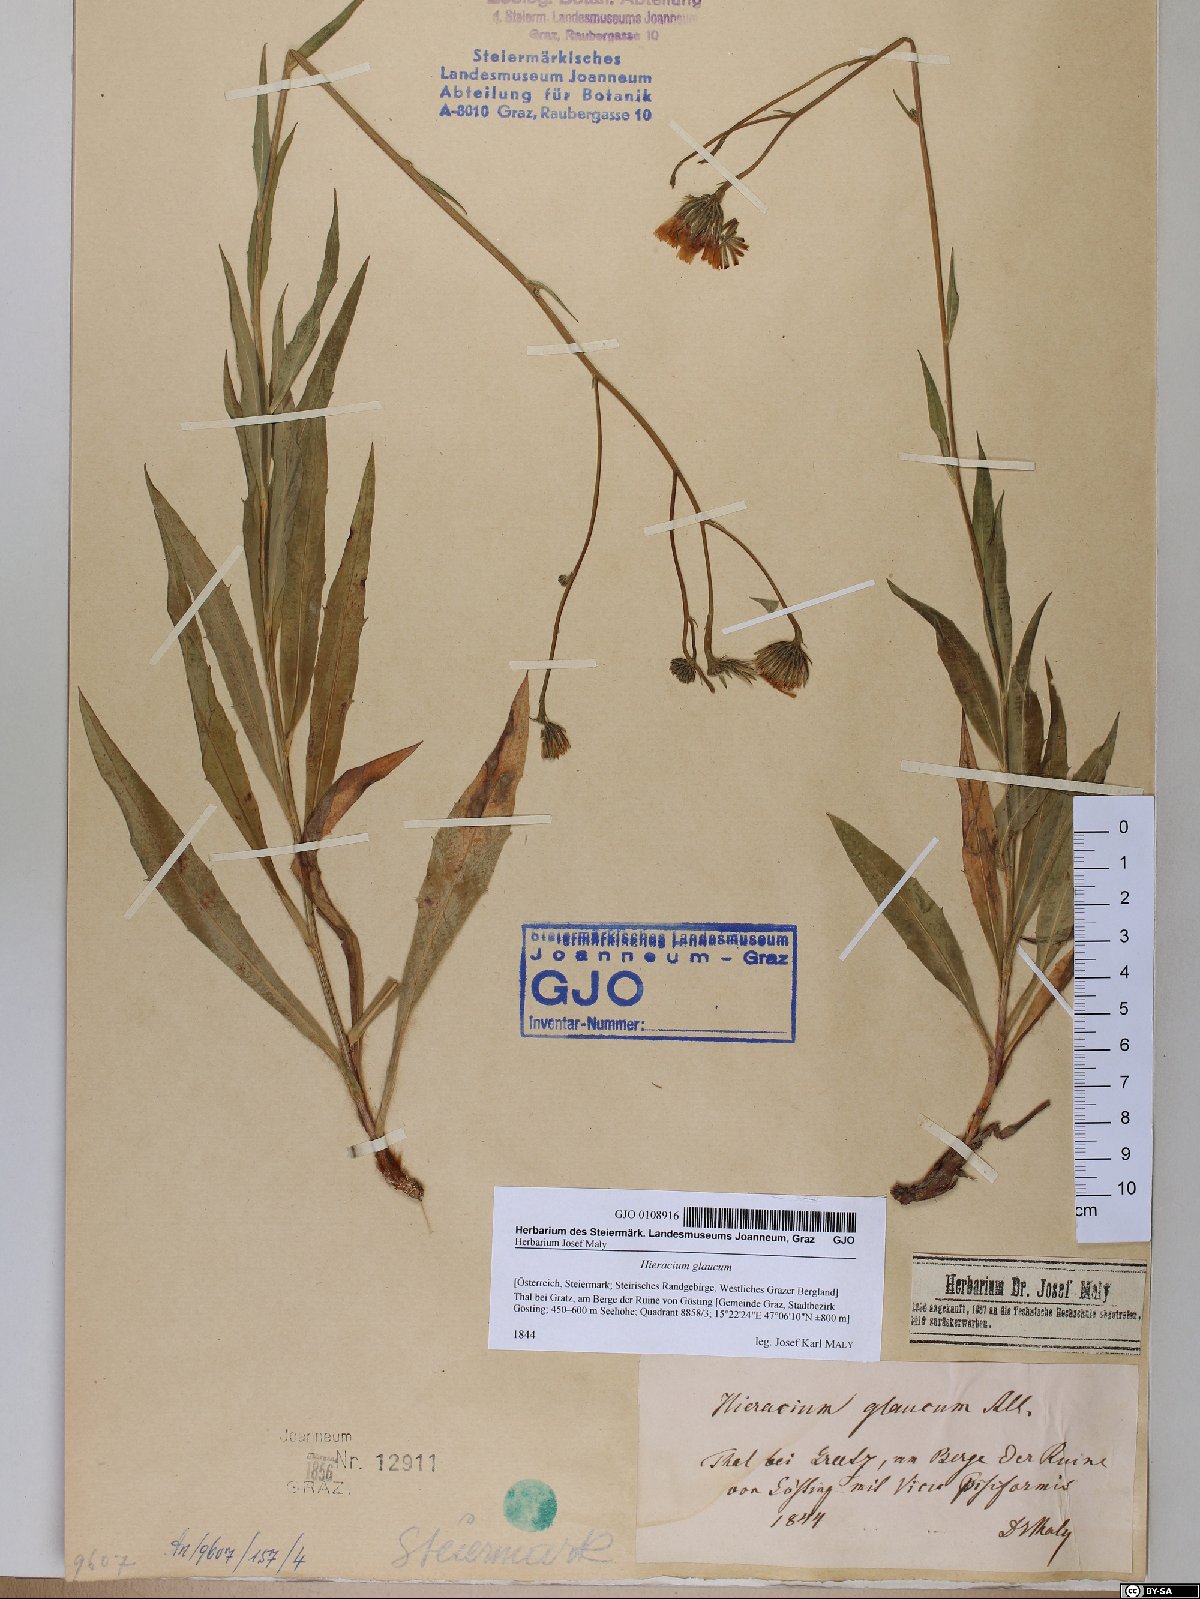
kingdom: Plantae
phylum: Tracheophyta
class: Magnoliopsida
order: Asterales
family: Asteraceae
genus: Hieracium
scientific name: Hieracium glaucum
